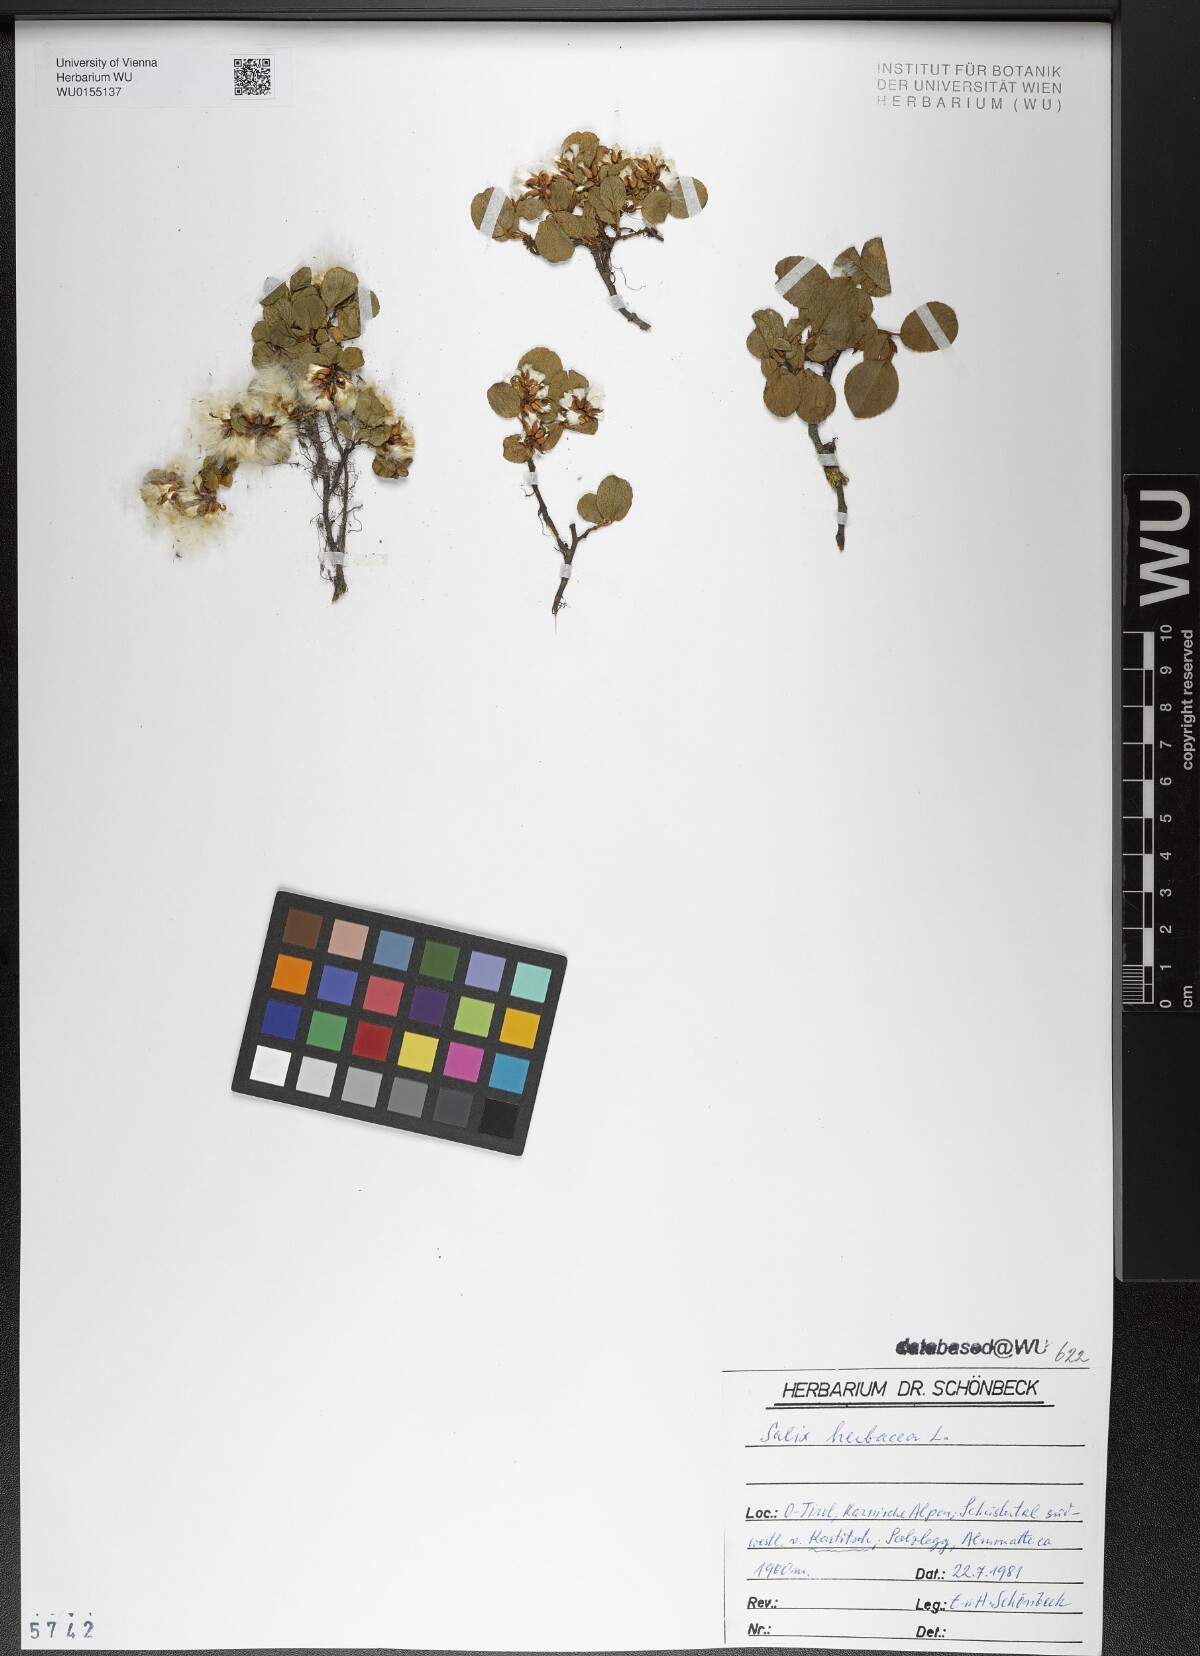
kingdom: Plantae
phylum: Tracheophyta
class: Magnoliopsida
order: Malpighiales
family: Salicaceae
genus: Salix
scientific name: Salix herbacea
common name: Dwarf willow
